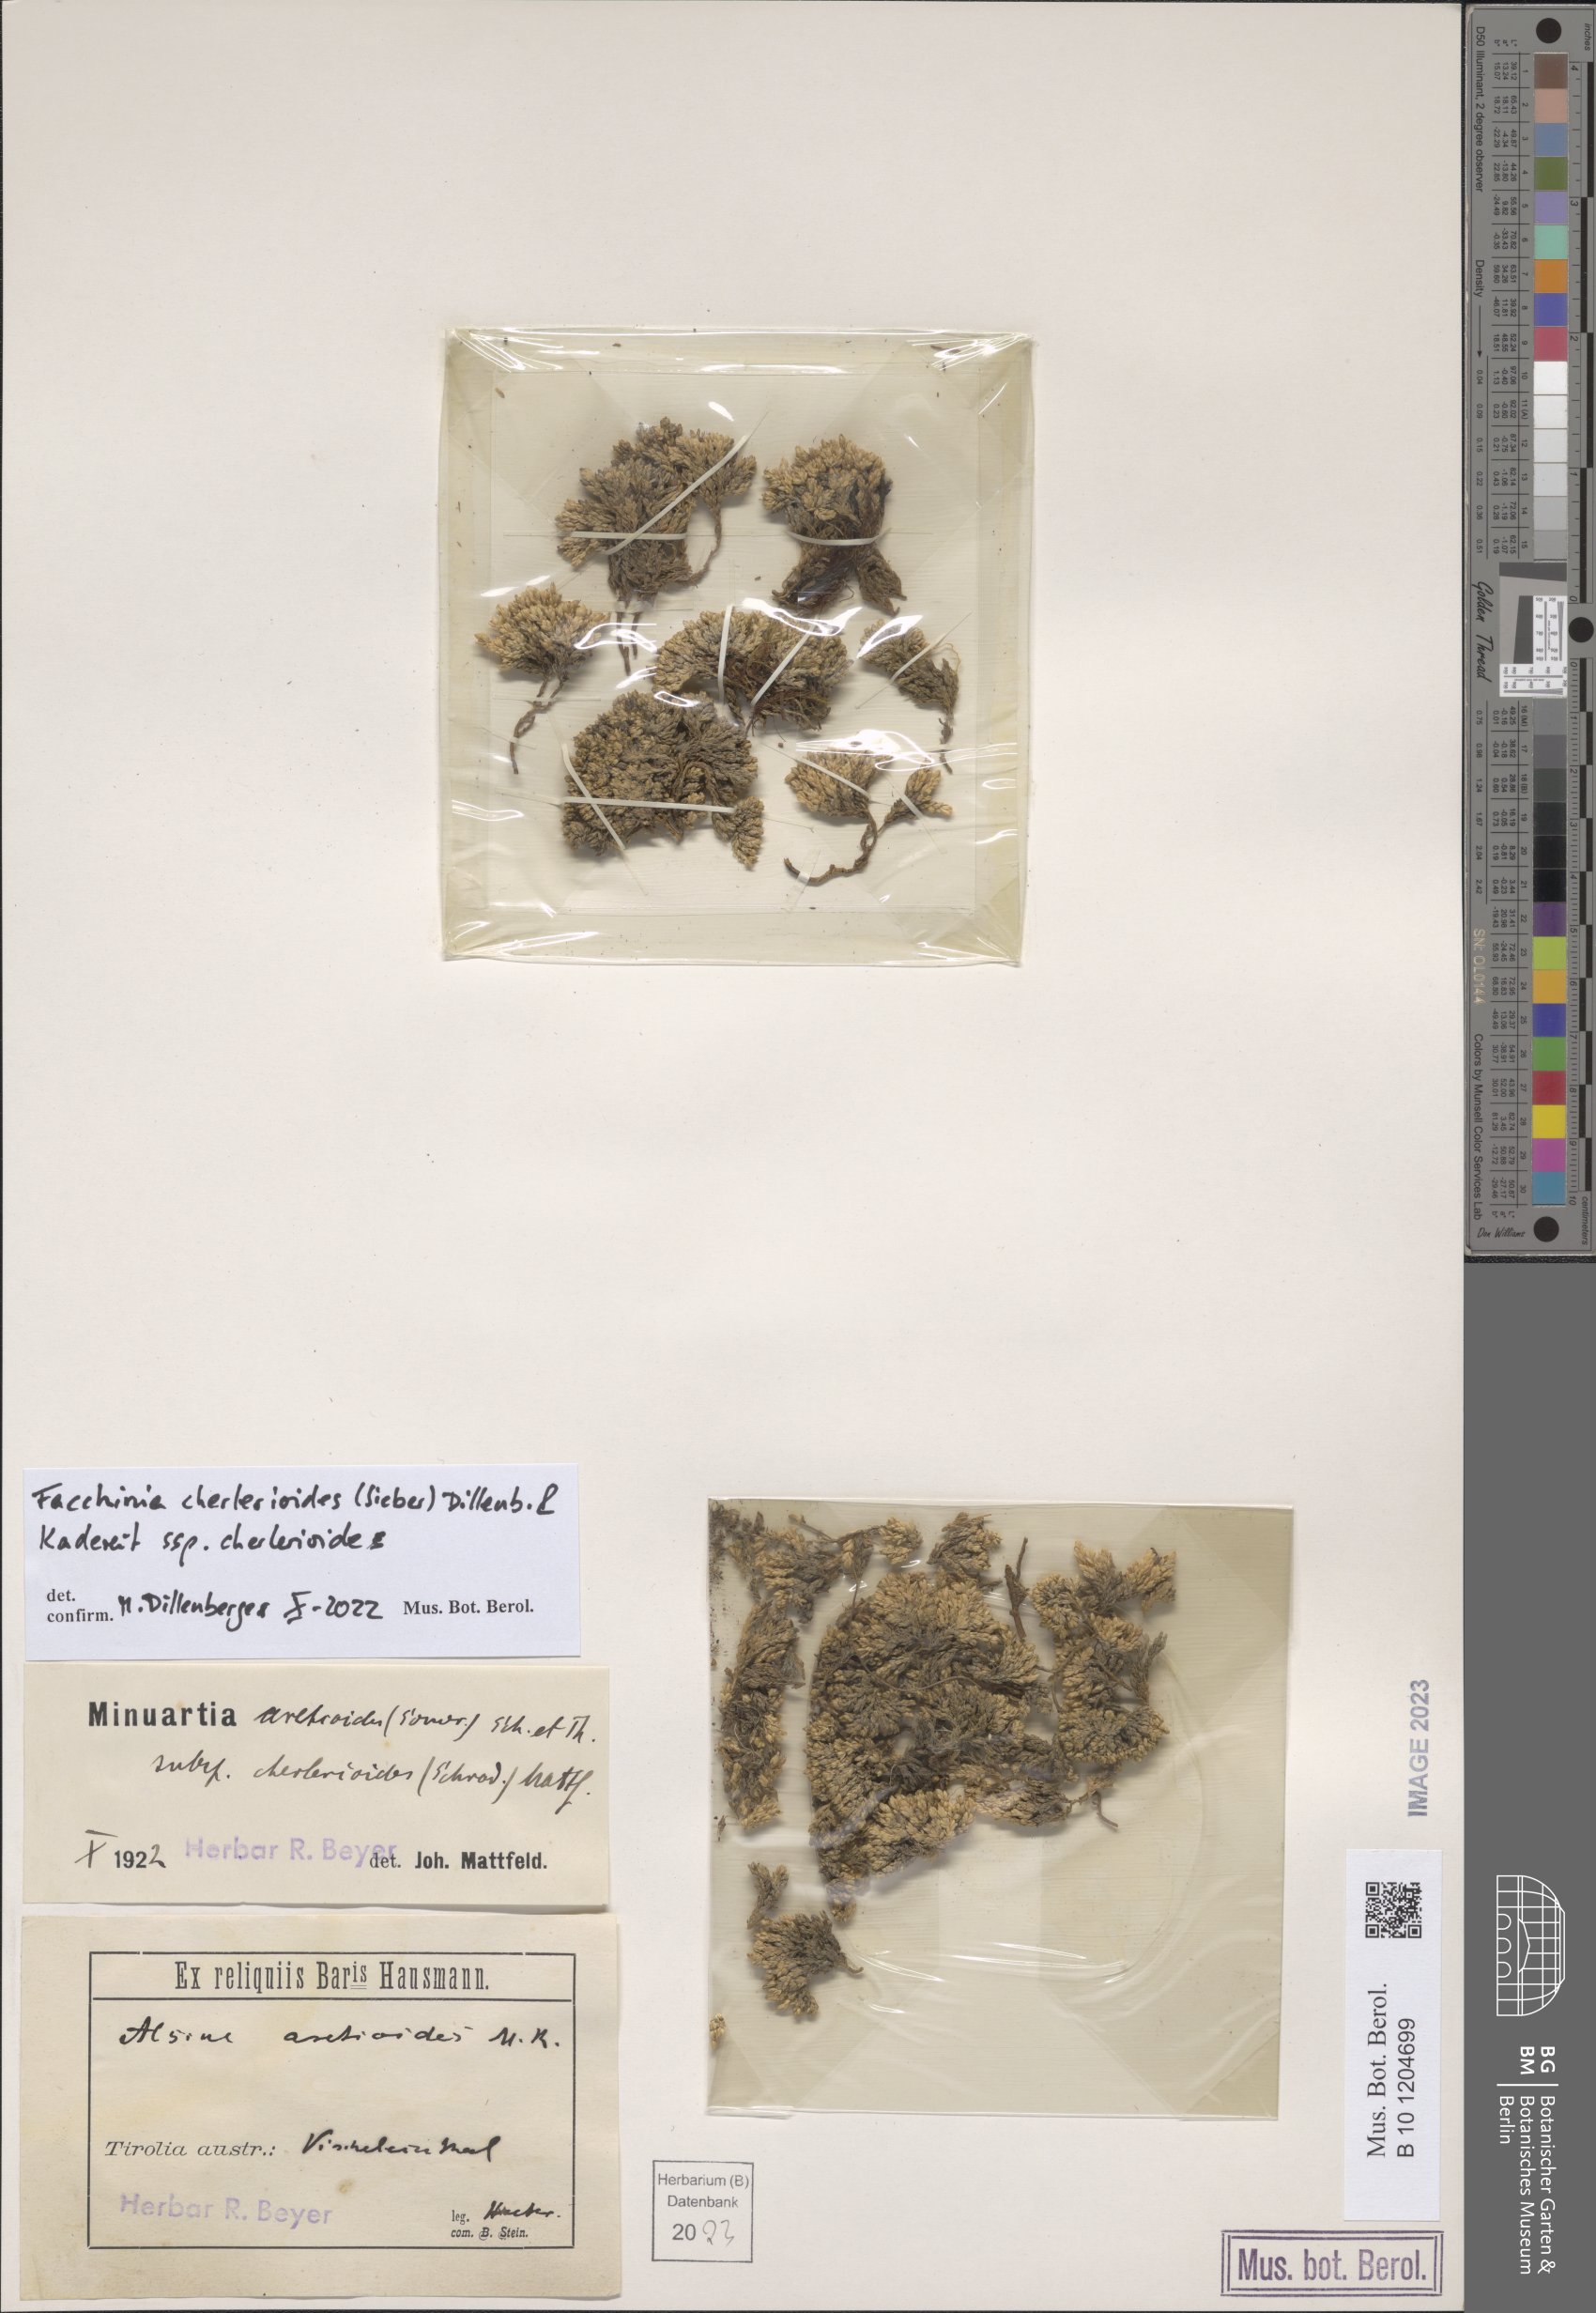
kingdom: Plantae
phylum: Tracheophyta
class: Magnoliopsida
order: Caryophyllales
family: Caryophyllaceae
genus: Facchinia
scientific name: Facchinia cherlerioides
